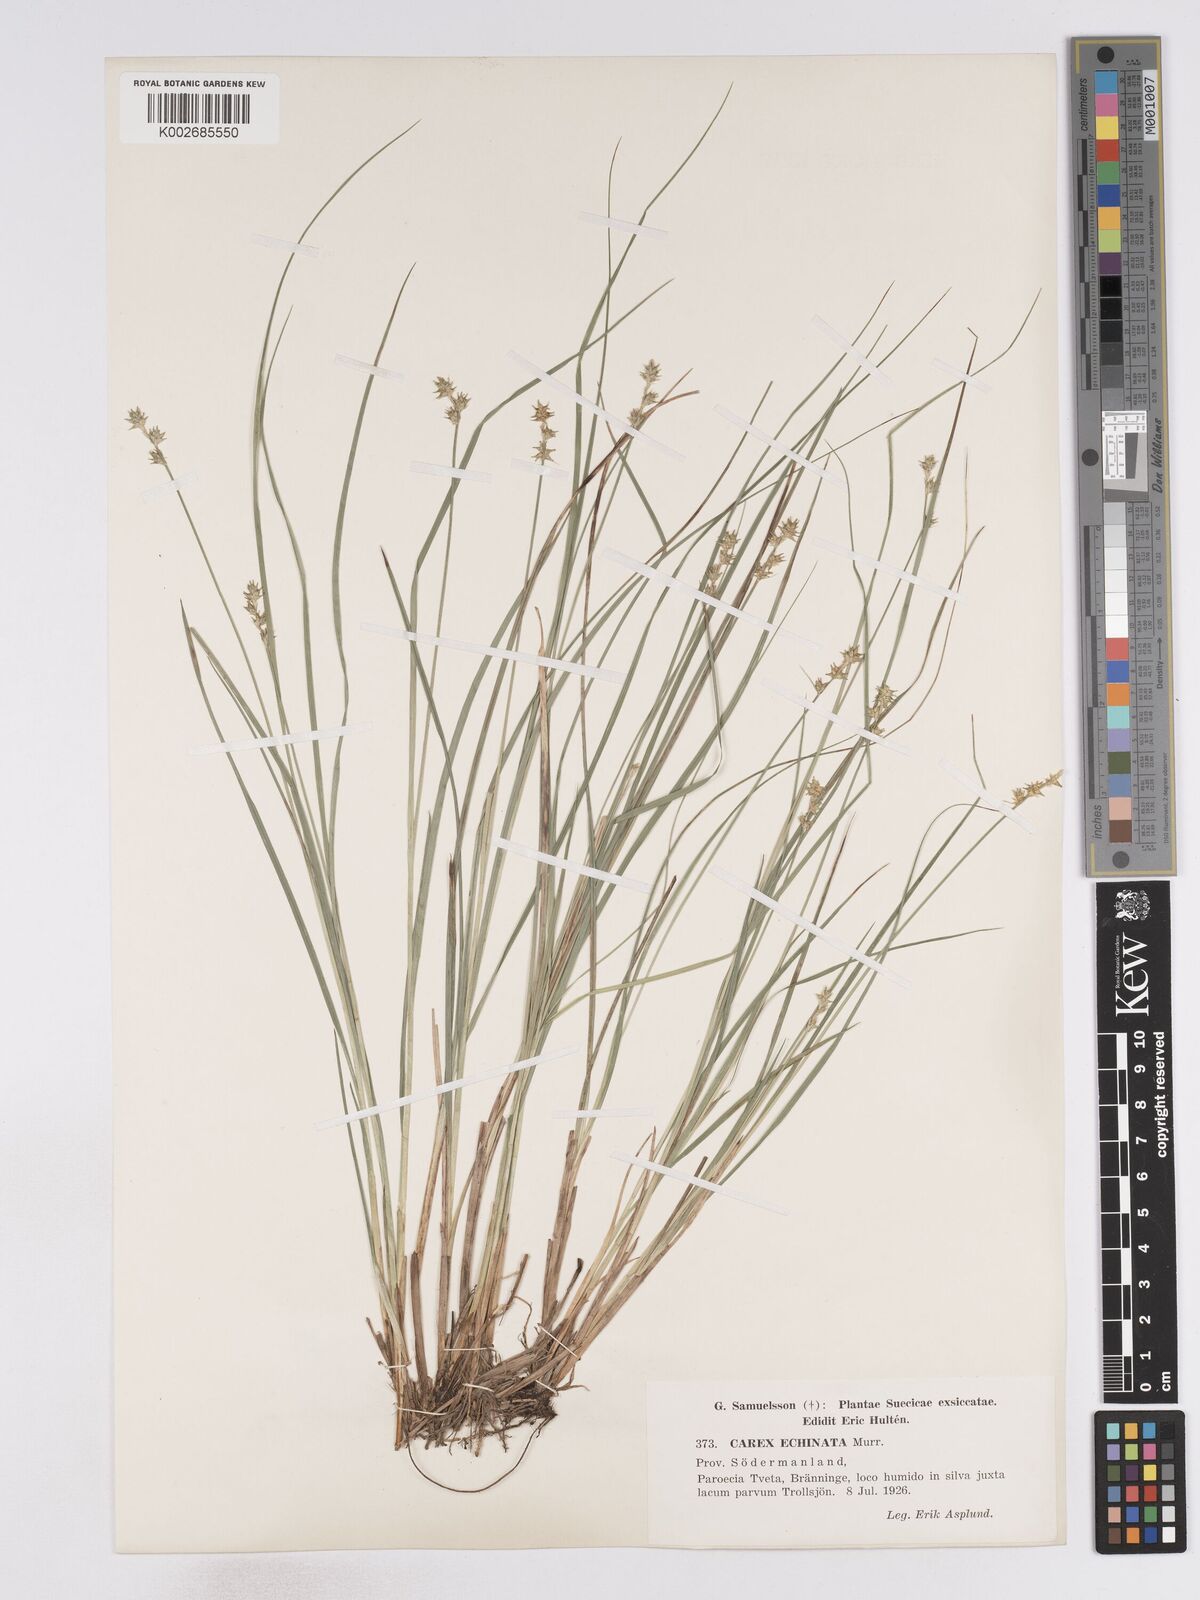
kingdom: Plantae
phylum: Tracheophyta
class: Liliopsida
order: Poales
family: Cyperaceae
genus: Carex
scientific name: Carex echinata
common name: Star sedge
